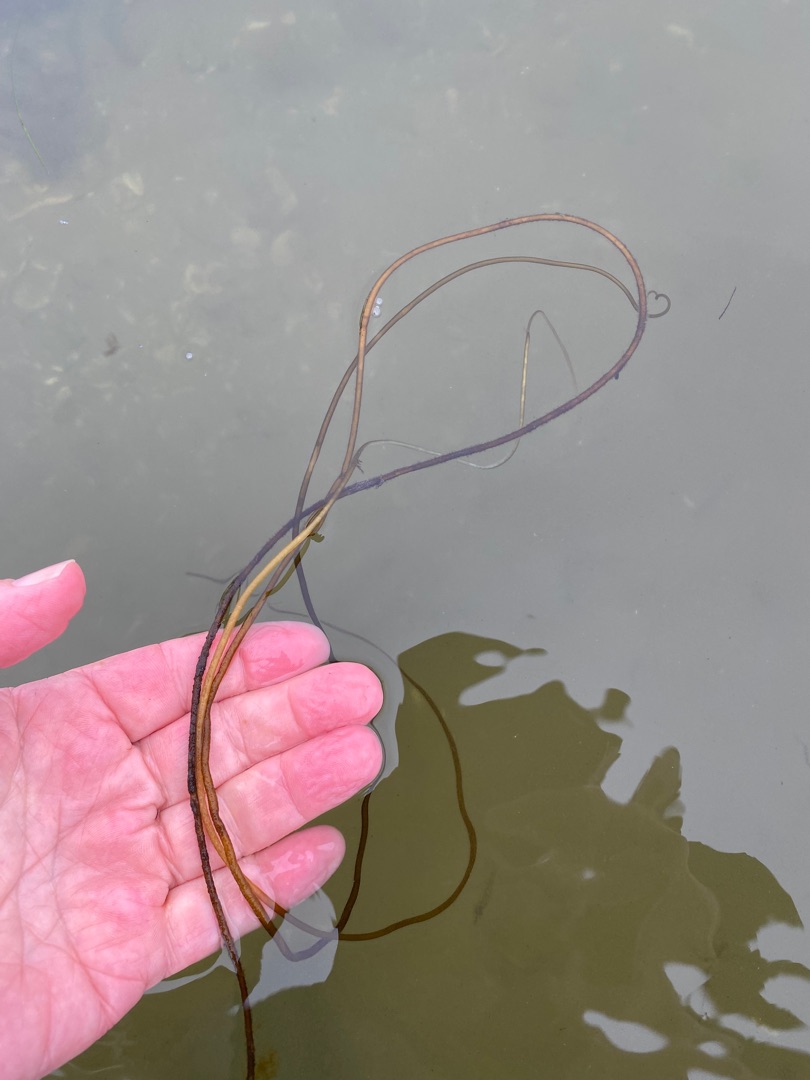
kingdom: Chromista
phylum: Ochrophyta
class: Phaeophyceae
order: Laminariales
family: Chordaceae
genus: Chorda
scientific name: Chorda filum
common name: Strengetang
